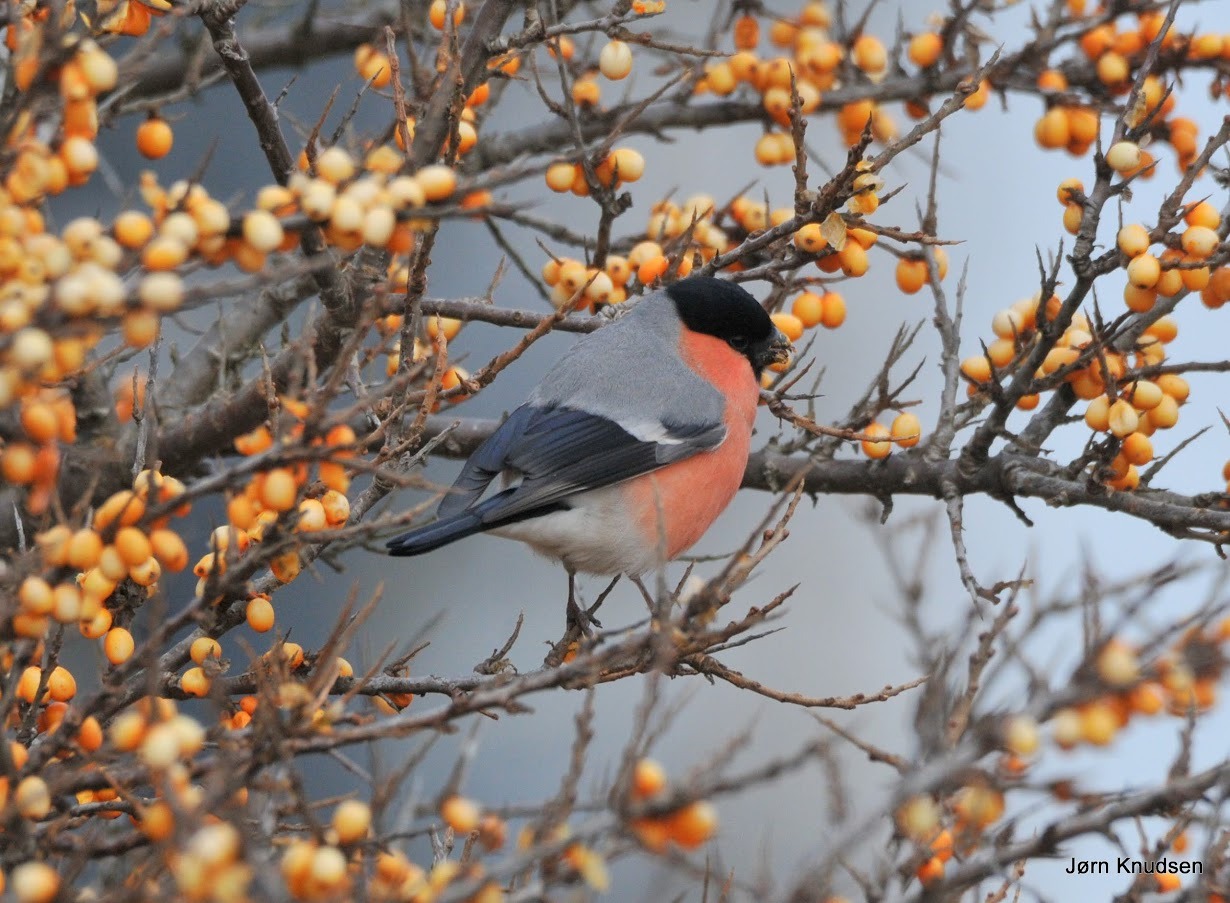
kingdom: Animalia
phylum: Chordata
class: Aves
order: Passeriformes
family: Fringillidae
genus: Pyrrhula
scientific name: Pyrrhula pyrrhula
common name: Dompap
